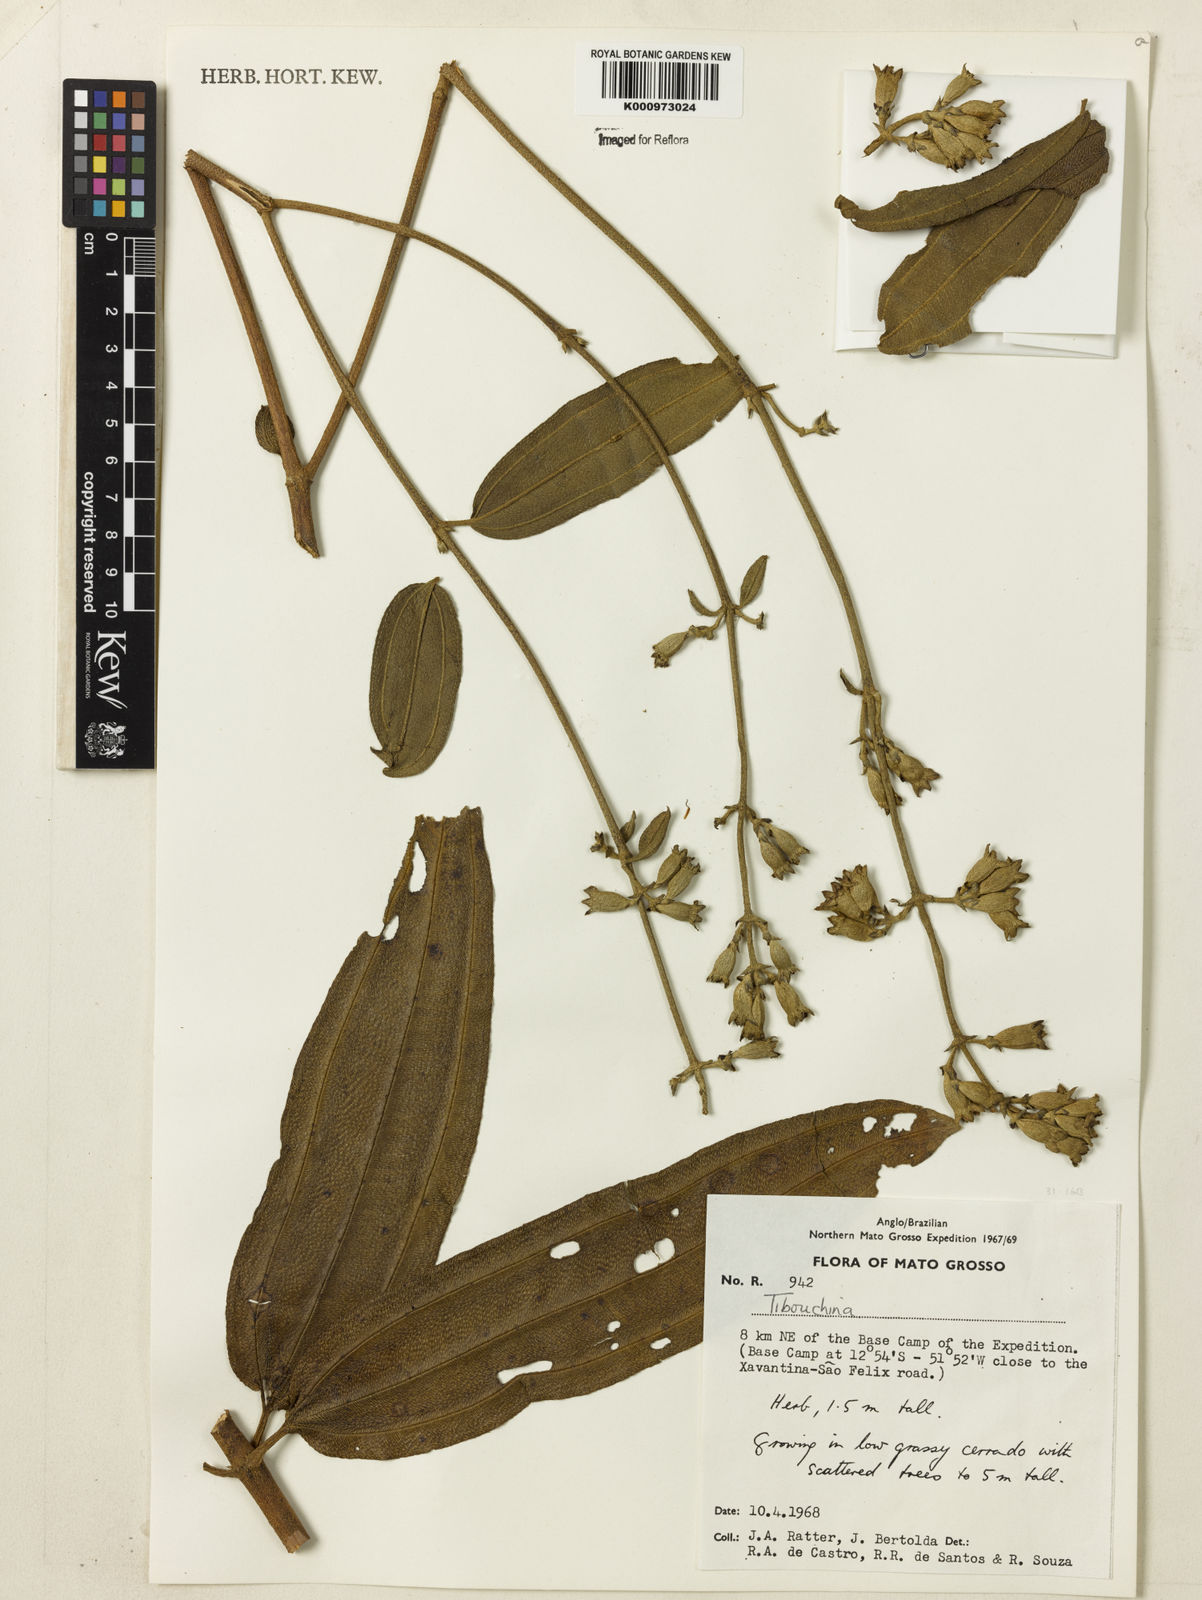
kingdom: Plantae
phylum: Tracheophyta
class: Magnoliopsida
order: Myrtales
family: Melastomataceae
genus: Tibouchina
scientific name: Tibouchina
